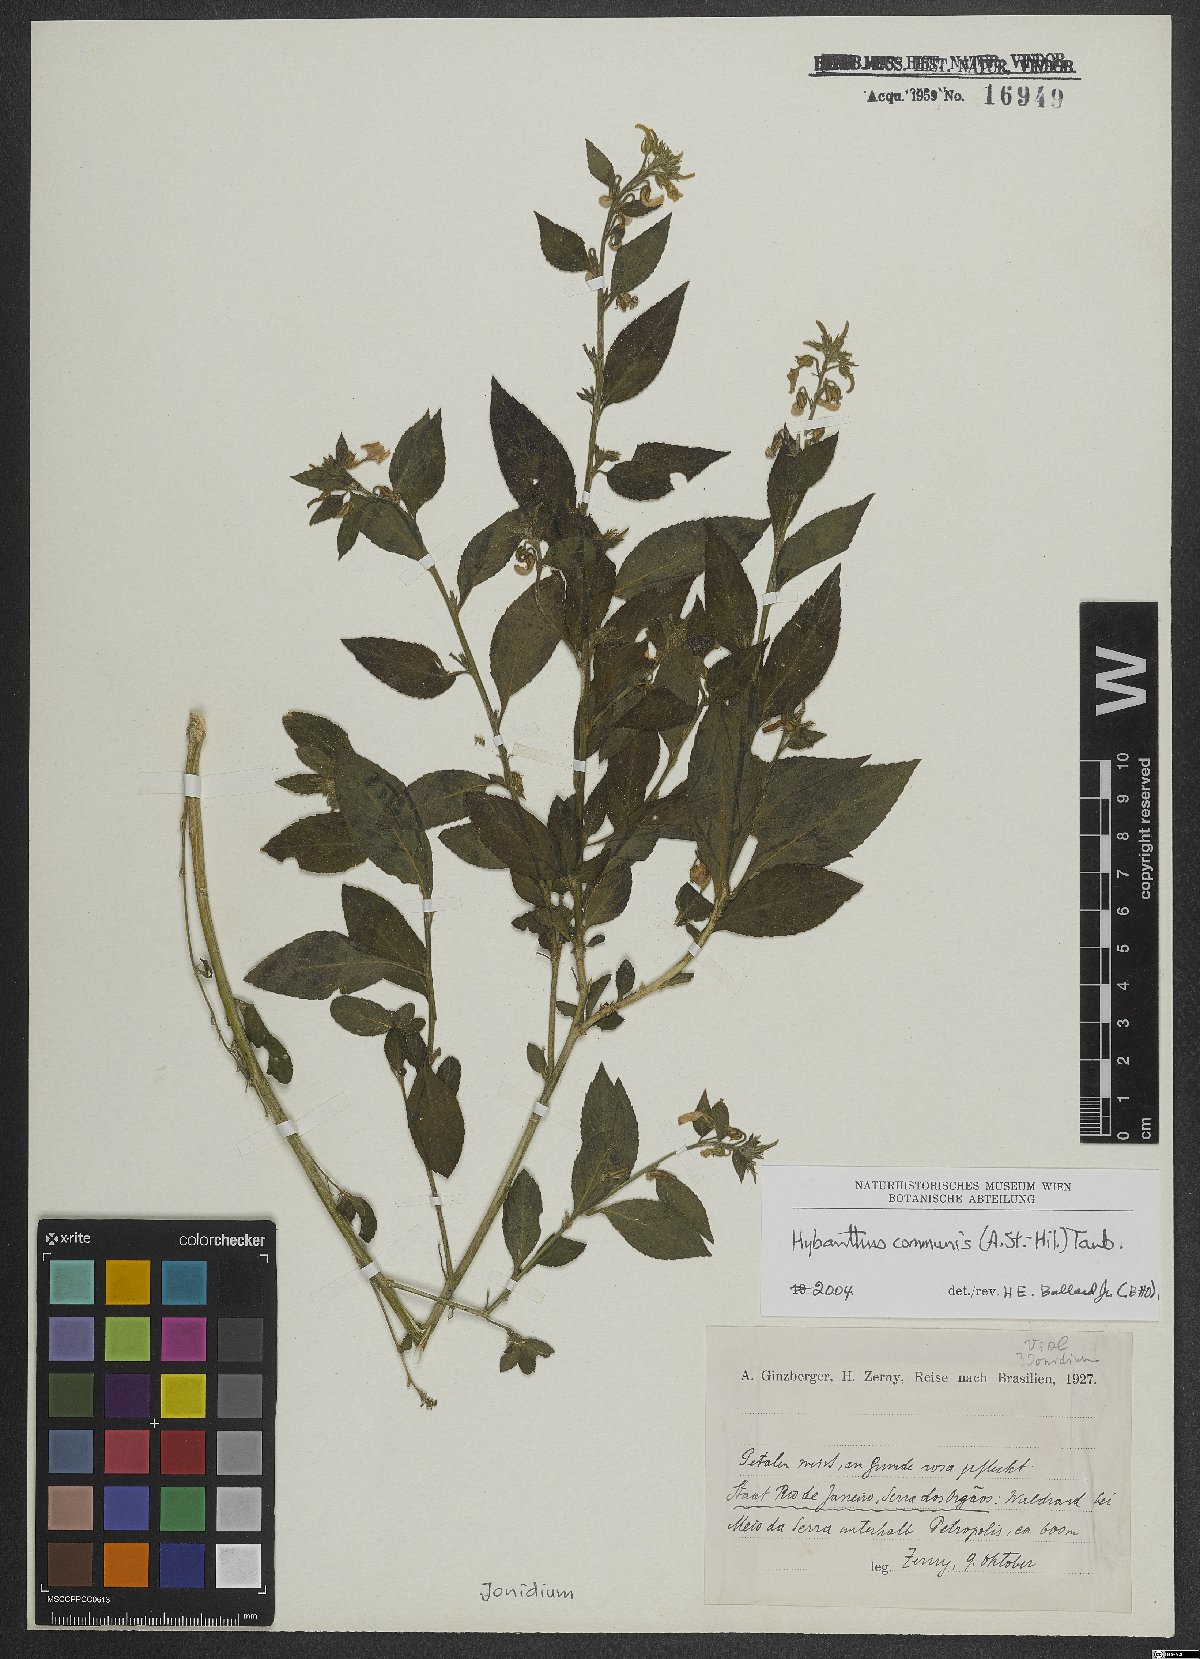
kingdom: Plantae
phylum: Tracheophyta
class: Magnoliopsida
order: Malpighiales
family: Violaceae
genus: Pombalia
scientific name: Pombalia communis
